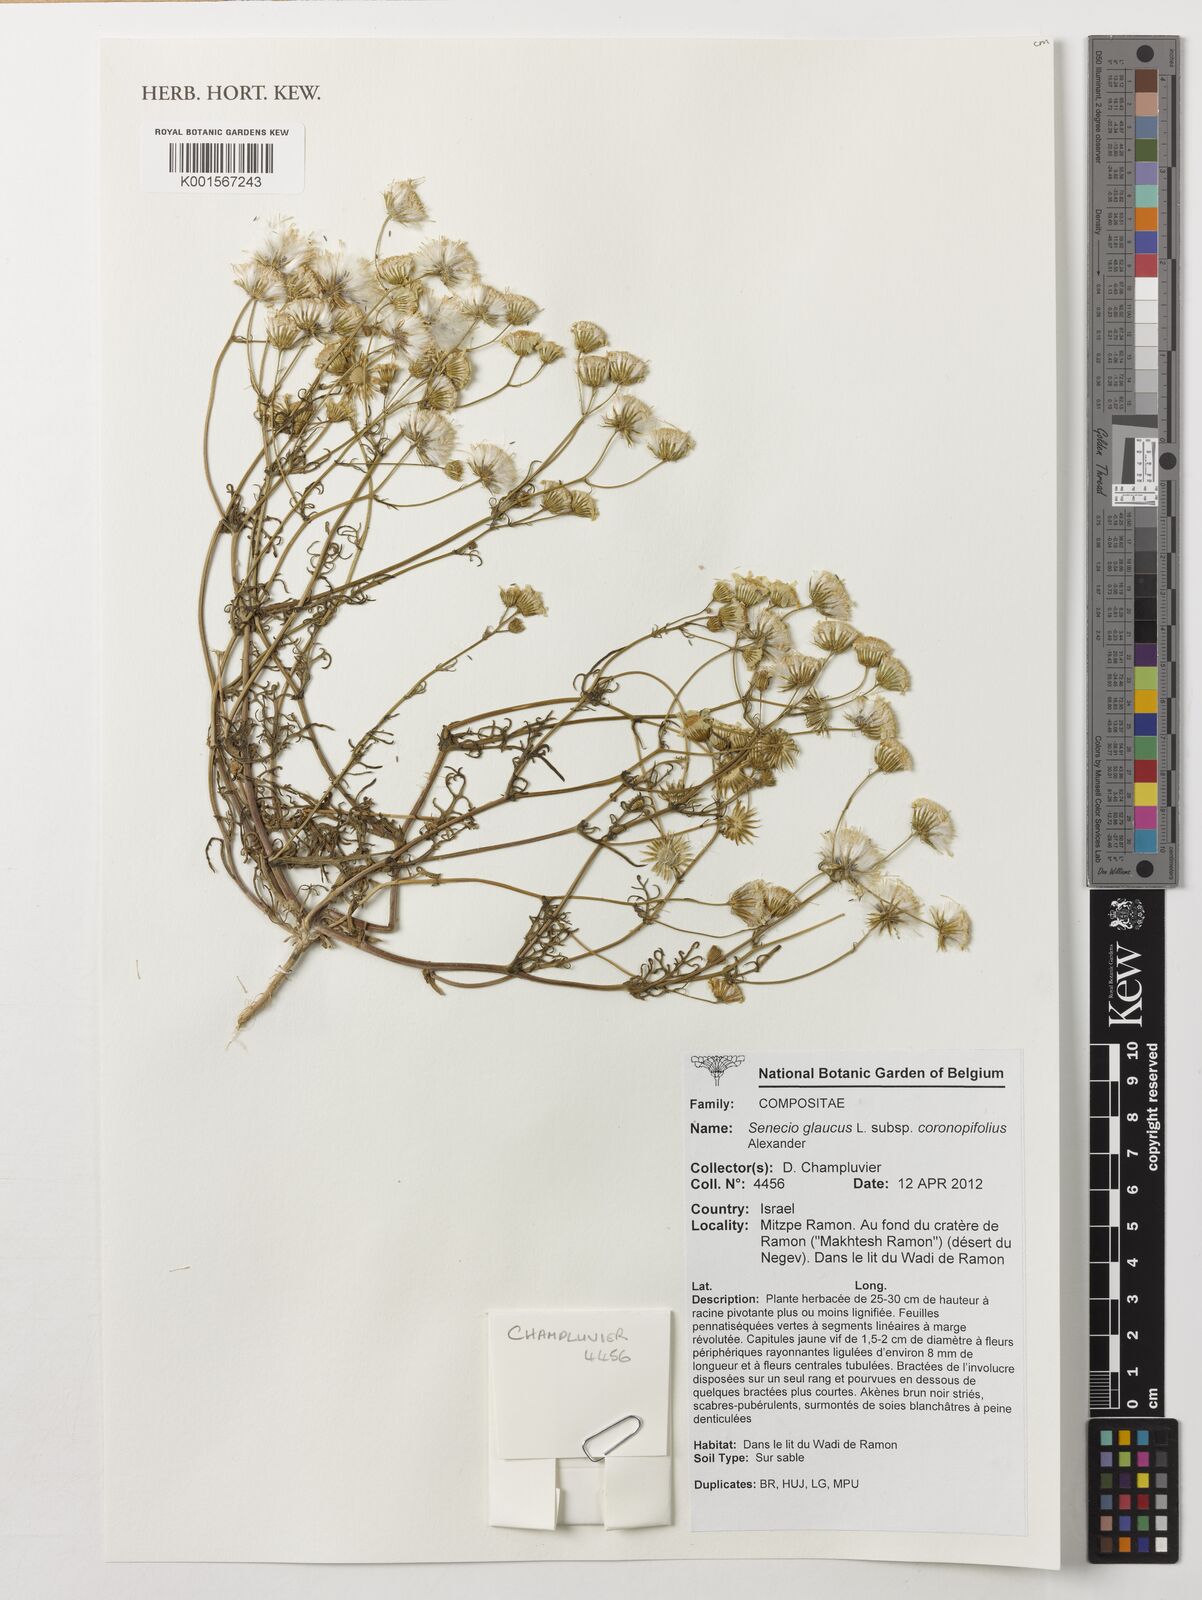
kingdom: Plantae
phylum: Tracheophyta
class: Magnoliopsida
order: Asterales
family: Asteraceae
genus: Senecio
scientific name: Senecio glaucus
